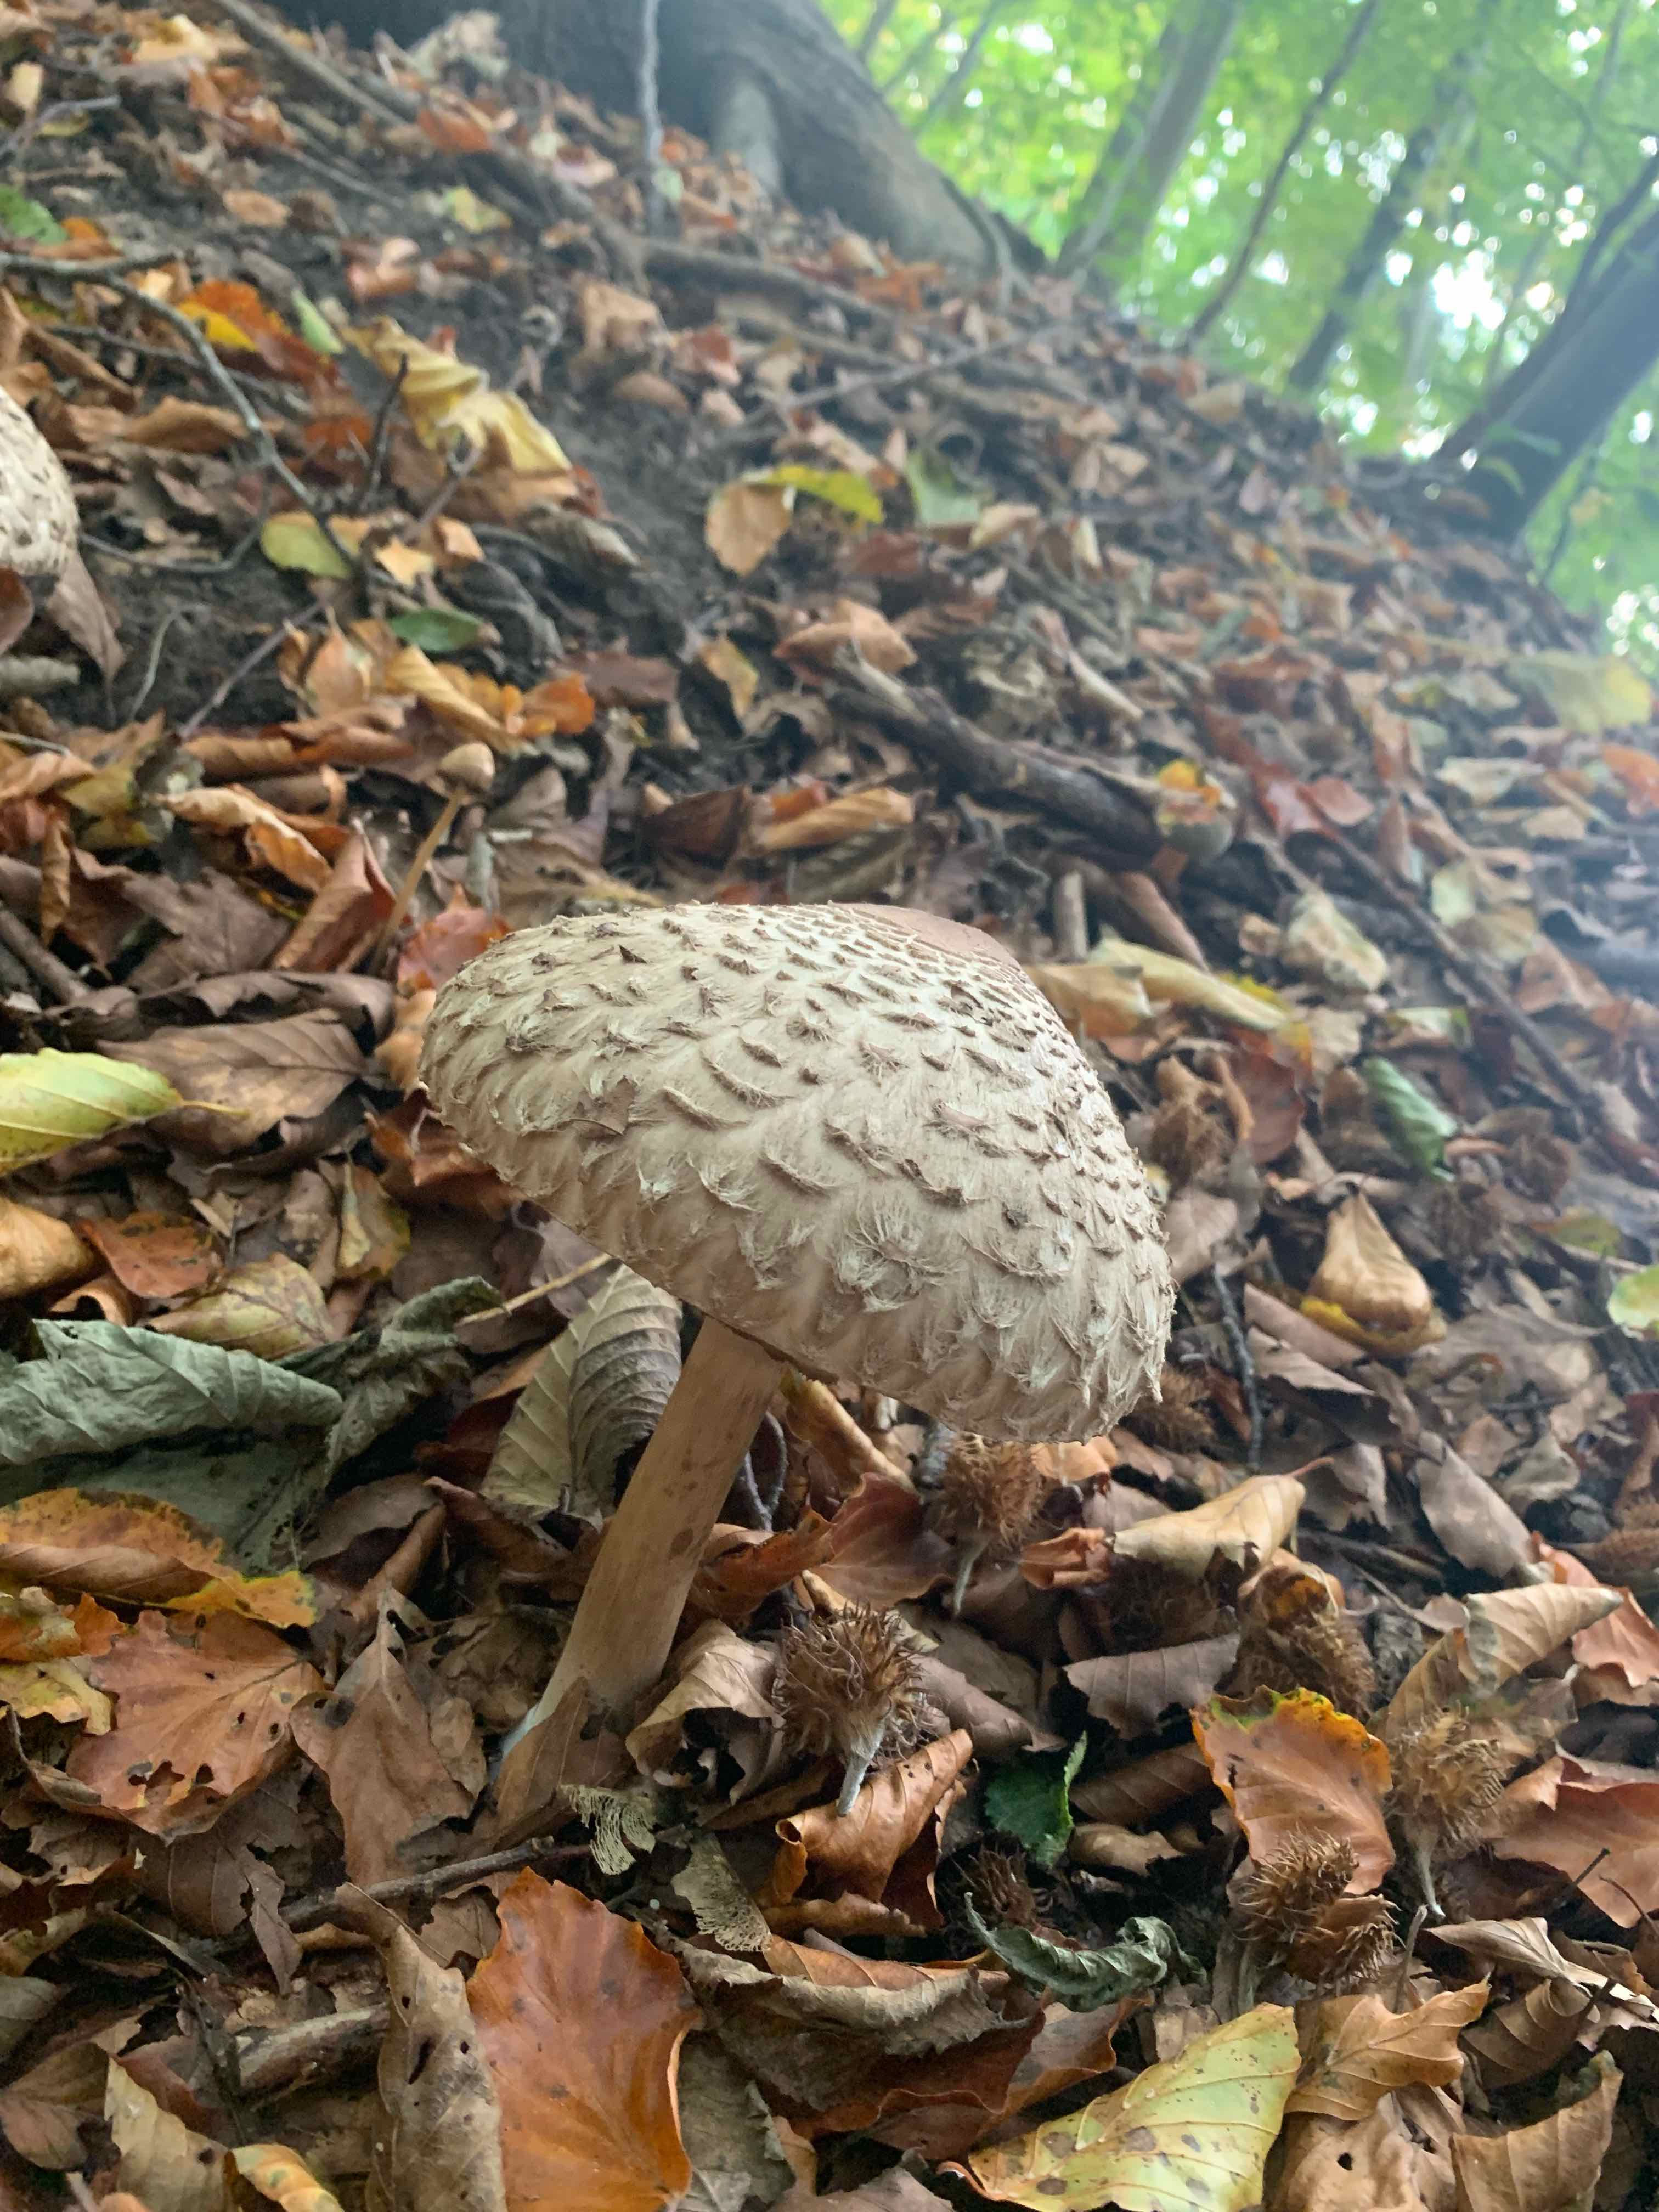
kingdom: Fungi
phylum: Basidiomycota
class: Agaricomycetes
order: Agaricales
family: Agaricaceae
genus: Chlorophyllum
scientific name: Chlorophyllum olivieri
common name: almindelig rabarberhat
